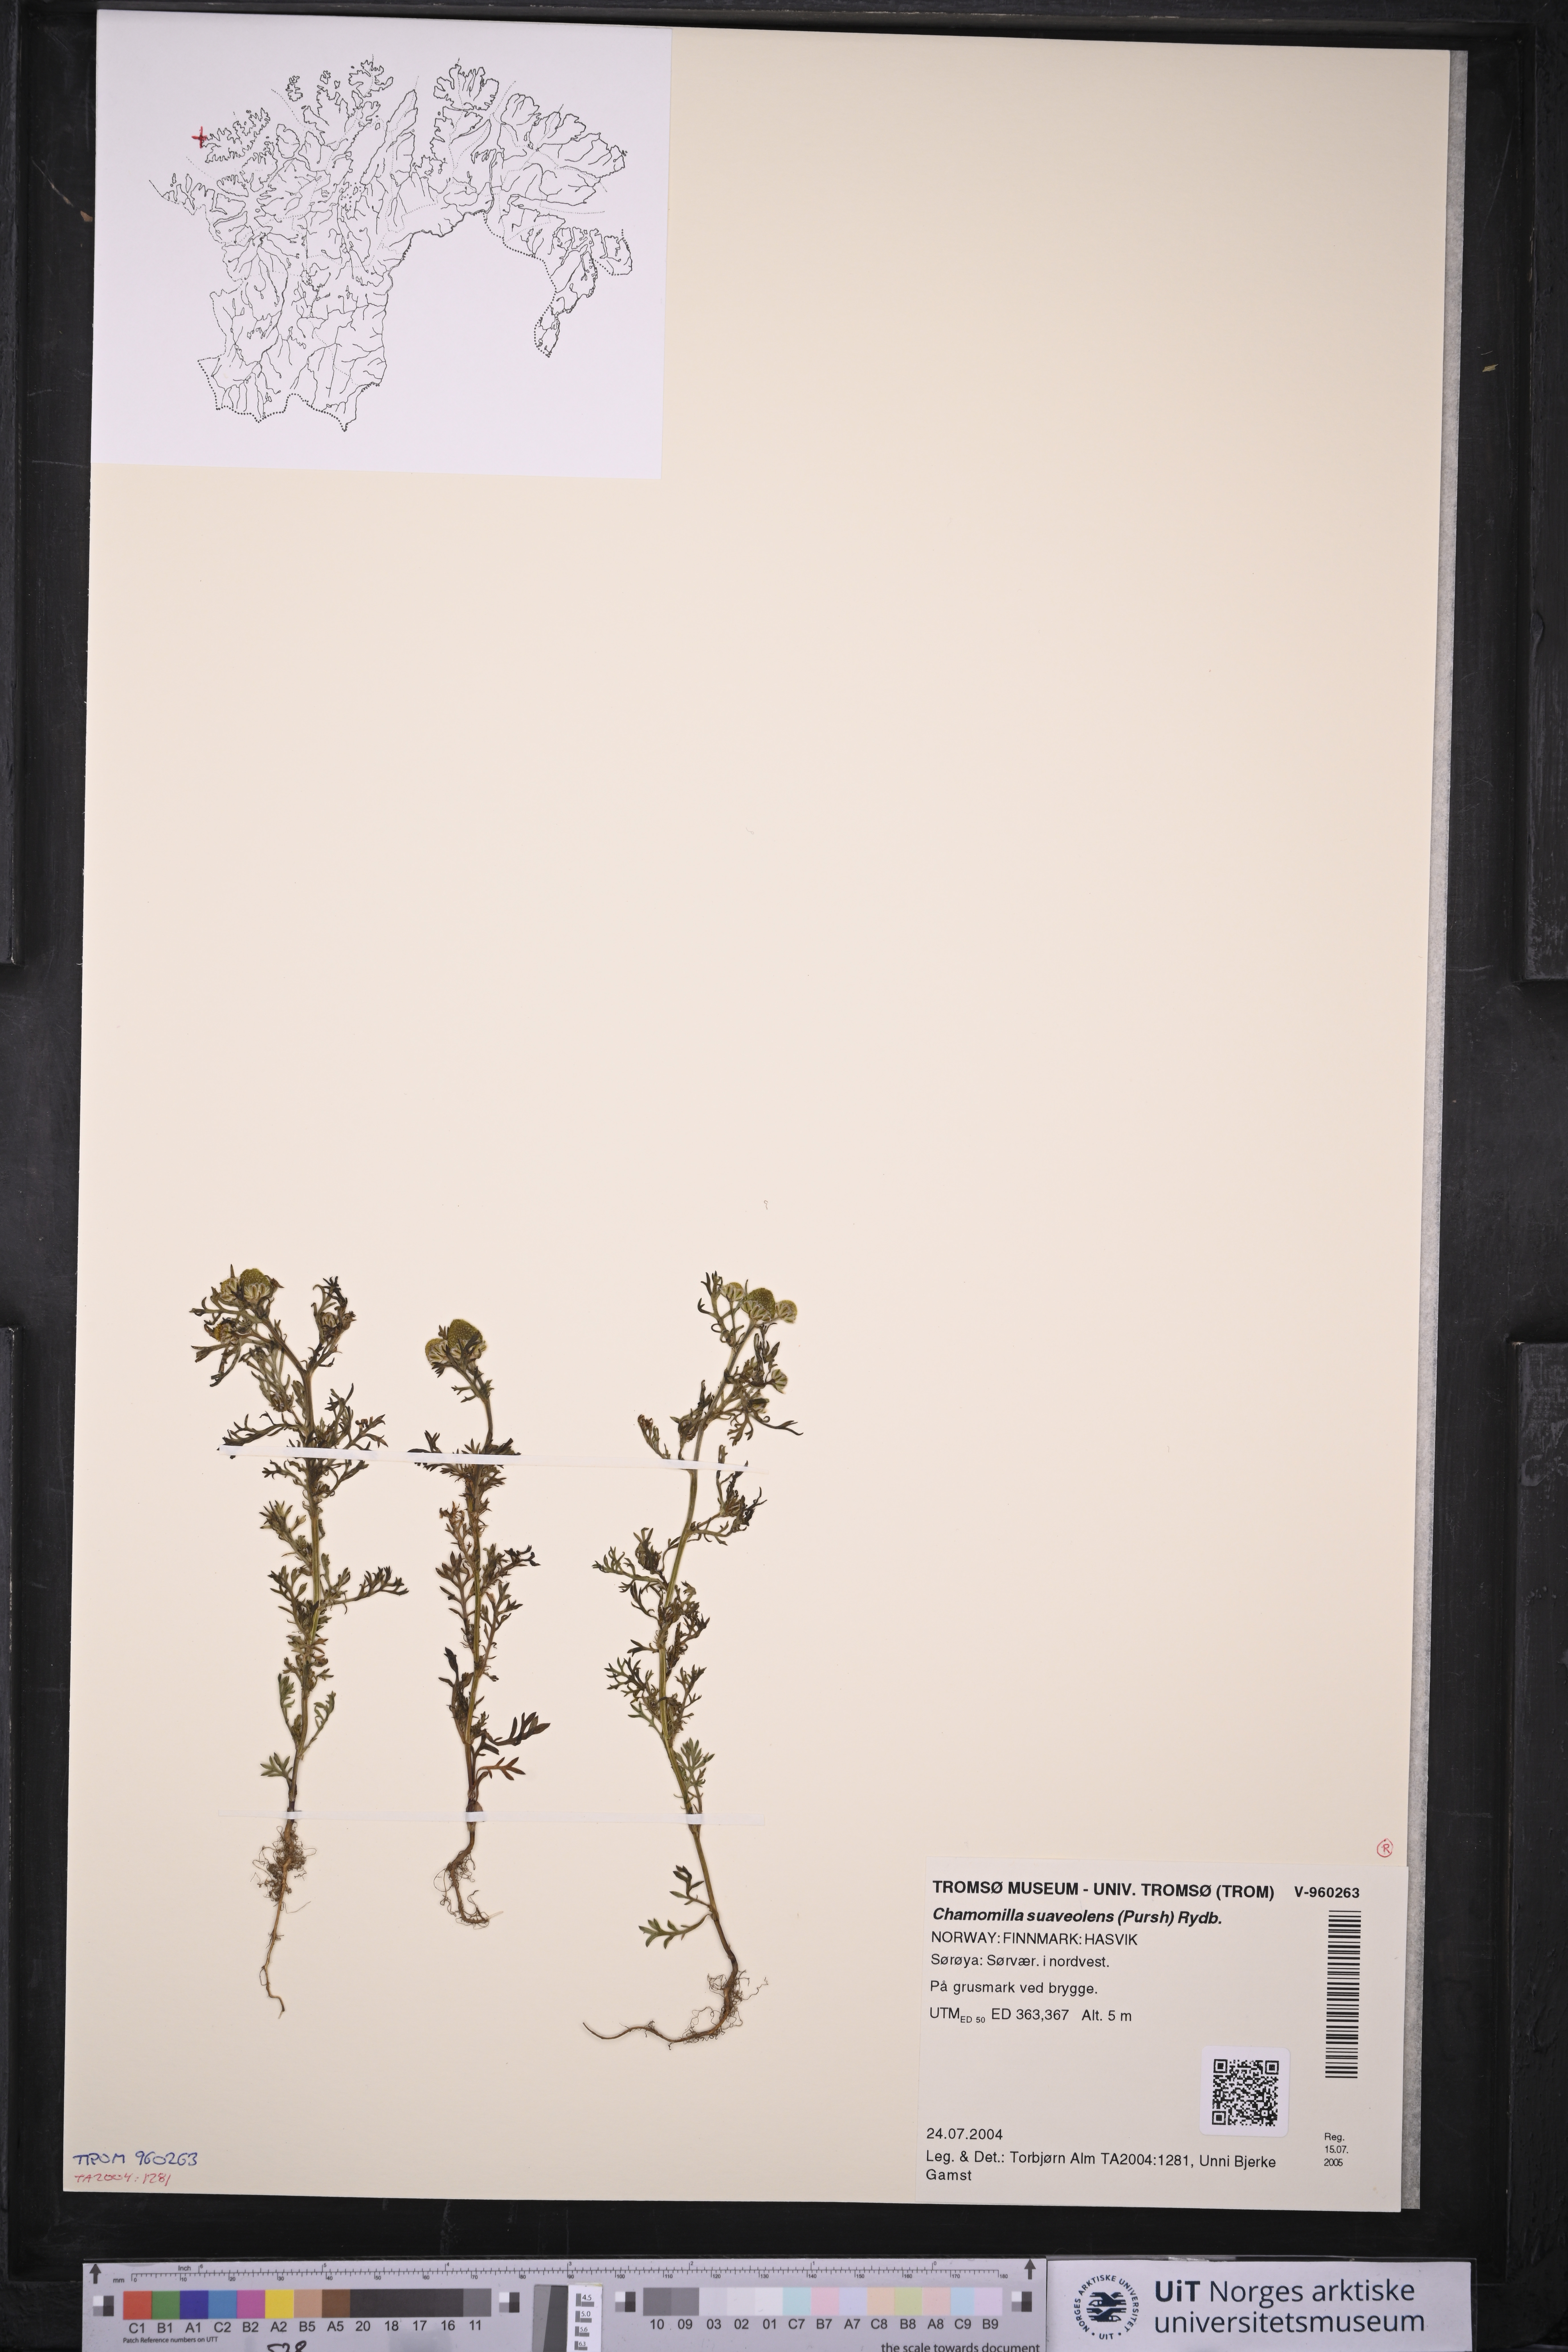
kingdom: Plantae
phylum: Tracheophyta
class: Magnoliopsida
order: Asterales
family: Asteraceae
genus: Matricaria
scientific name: Matricaria discoidea
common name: Disc mayweed
